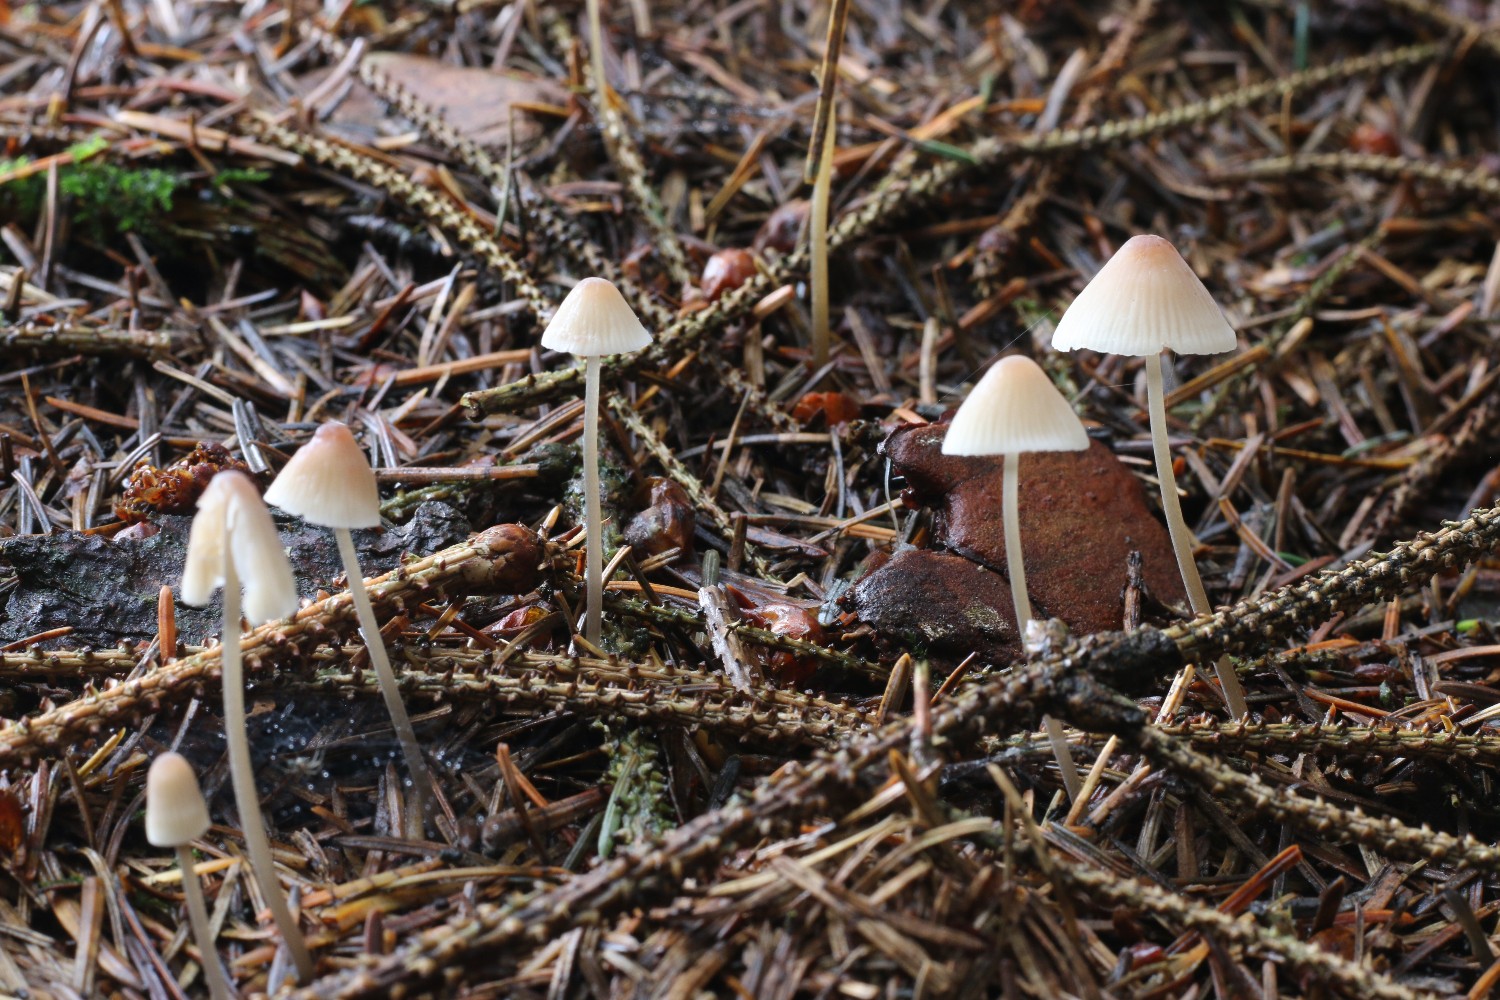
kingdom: Fungi
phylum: Basidiomycota
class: Agaricomycetes
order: Agaricales
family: Mycenaceae
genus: Mycena
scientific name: Mycena metata
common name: rødlig huesvamp
